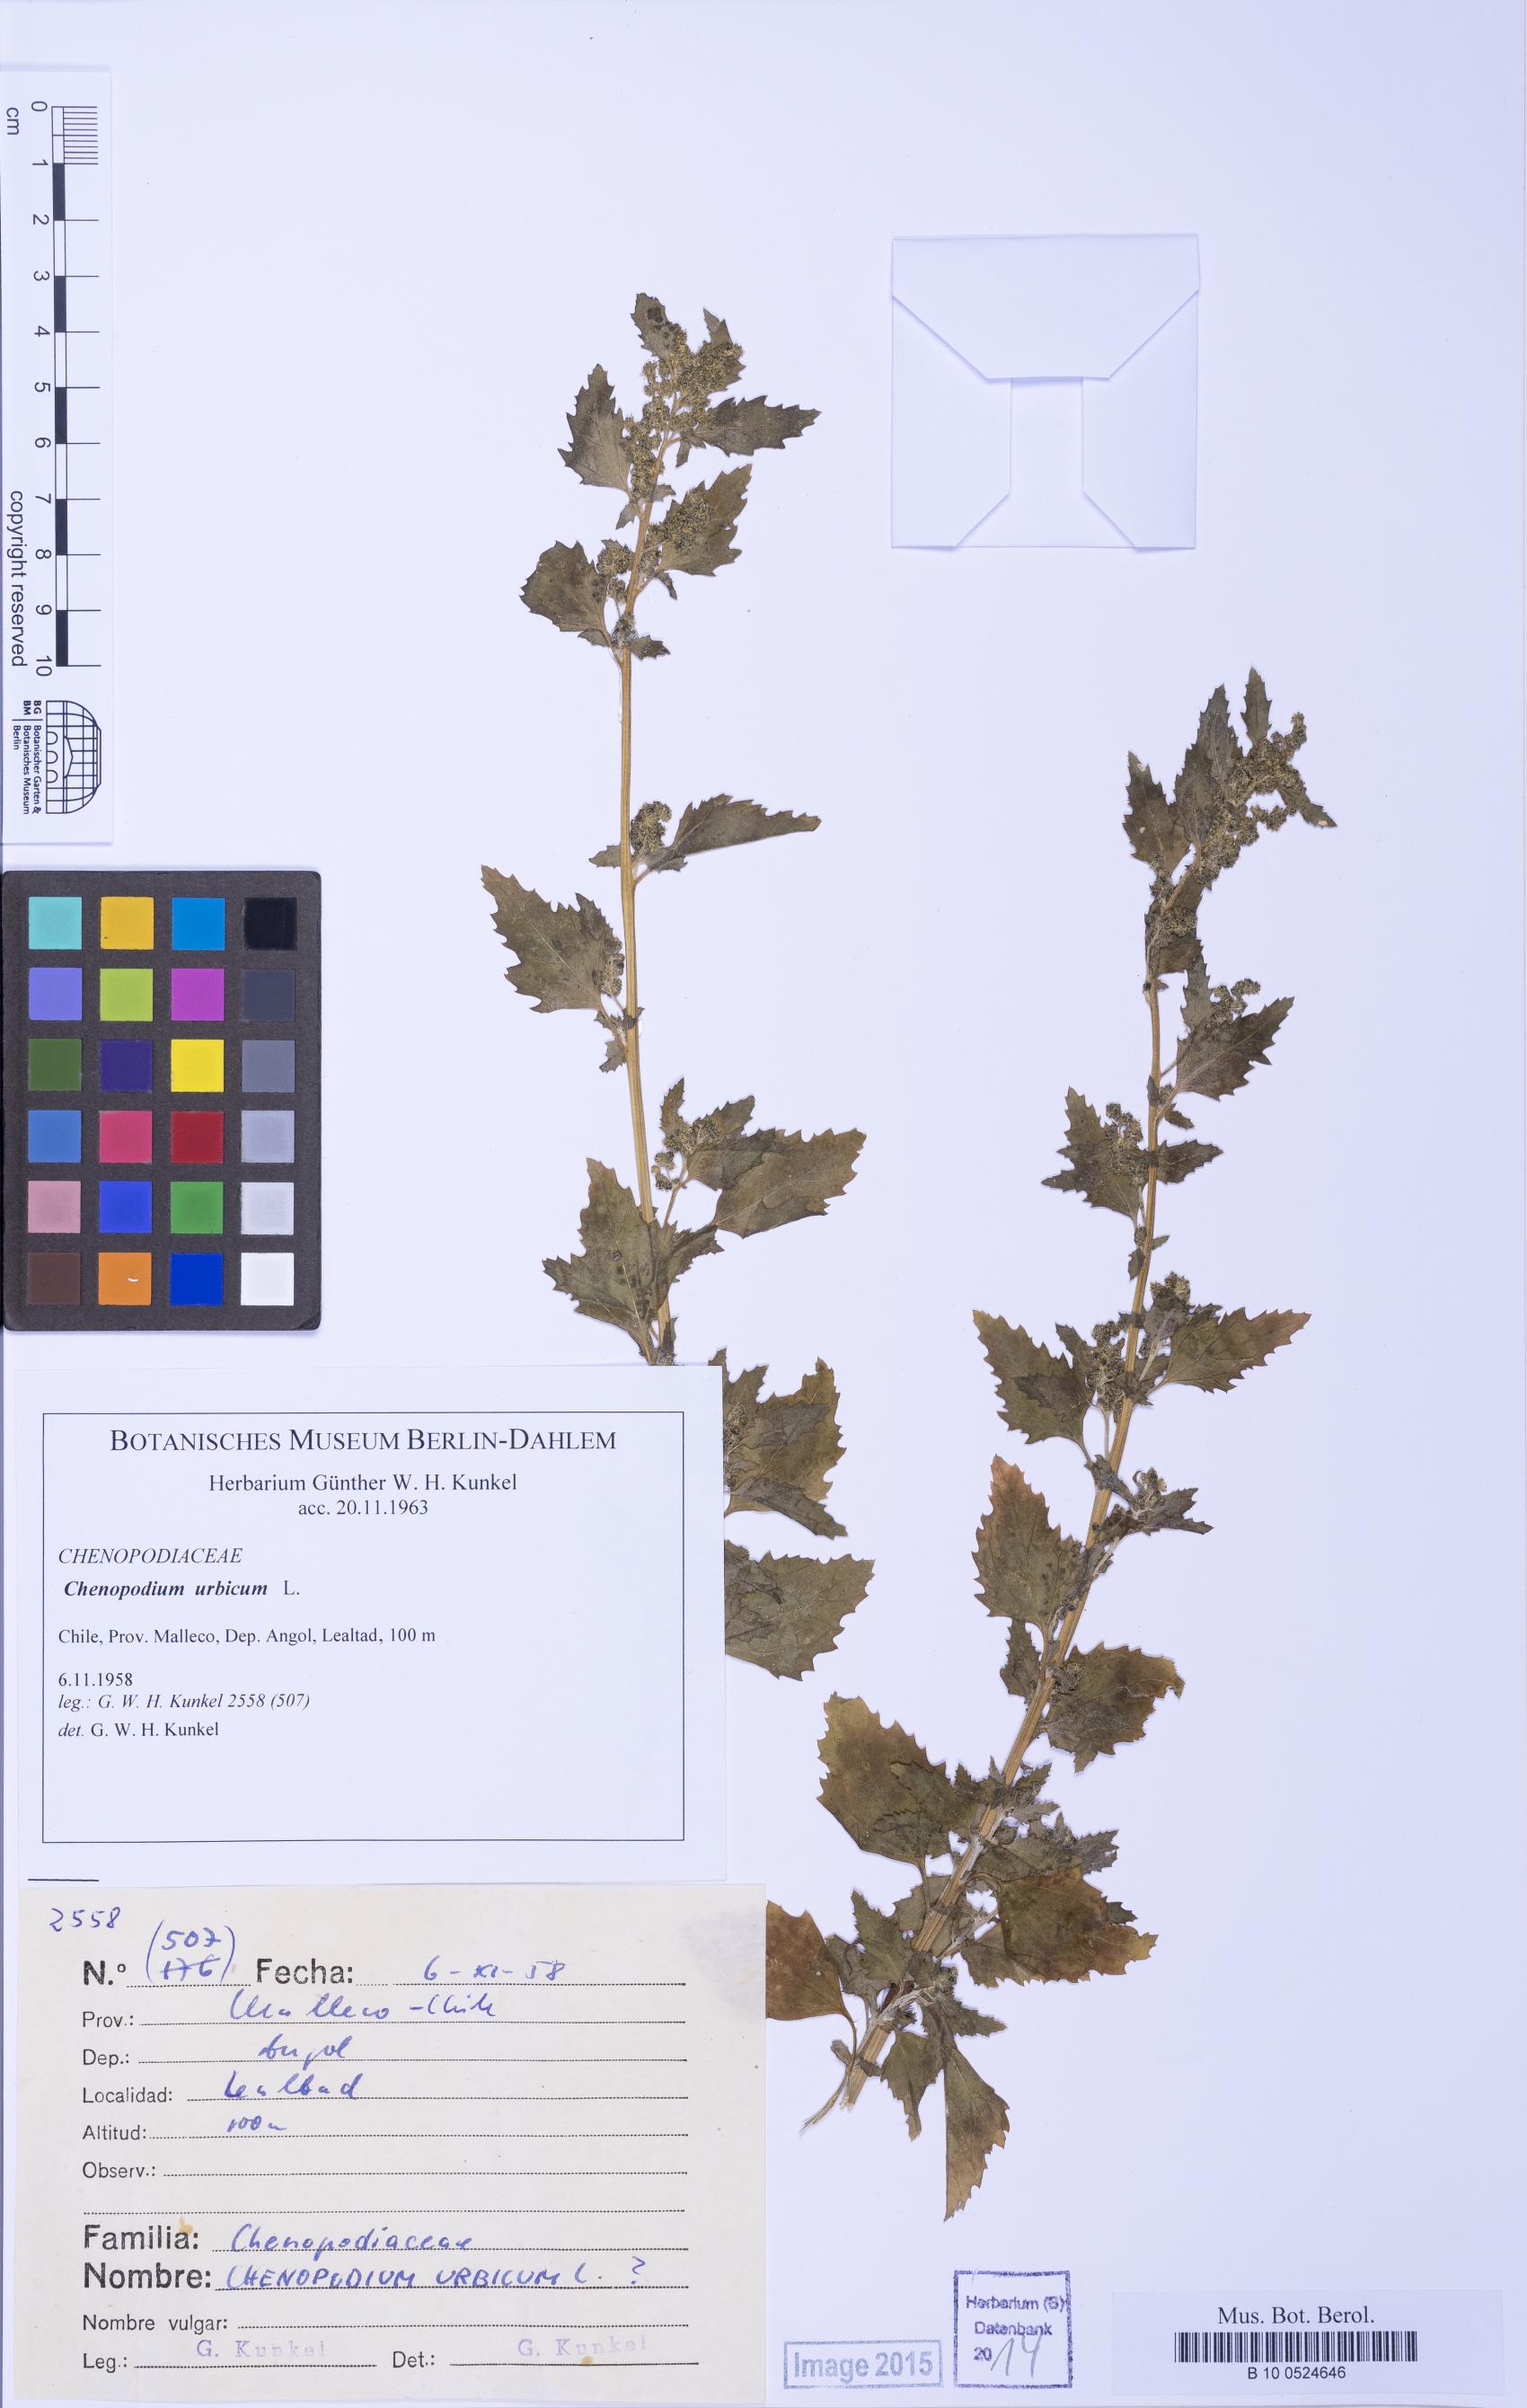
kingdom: Plantae
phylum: Tracheophyta
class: Magnoliopsida
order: Caryophyllales
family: Amaranthaceae
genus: Oxybasis
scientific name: Oxybasis urbica
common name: City goosefoot
